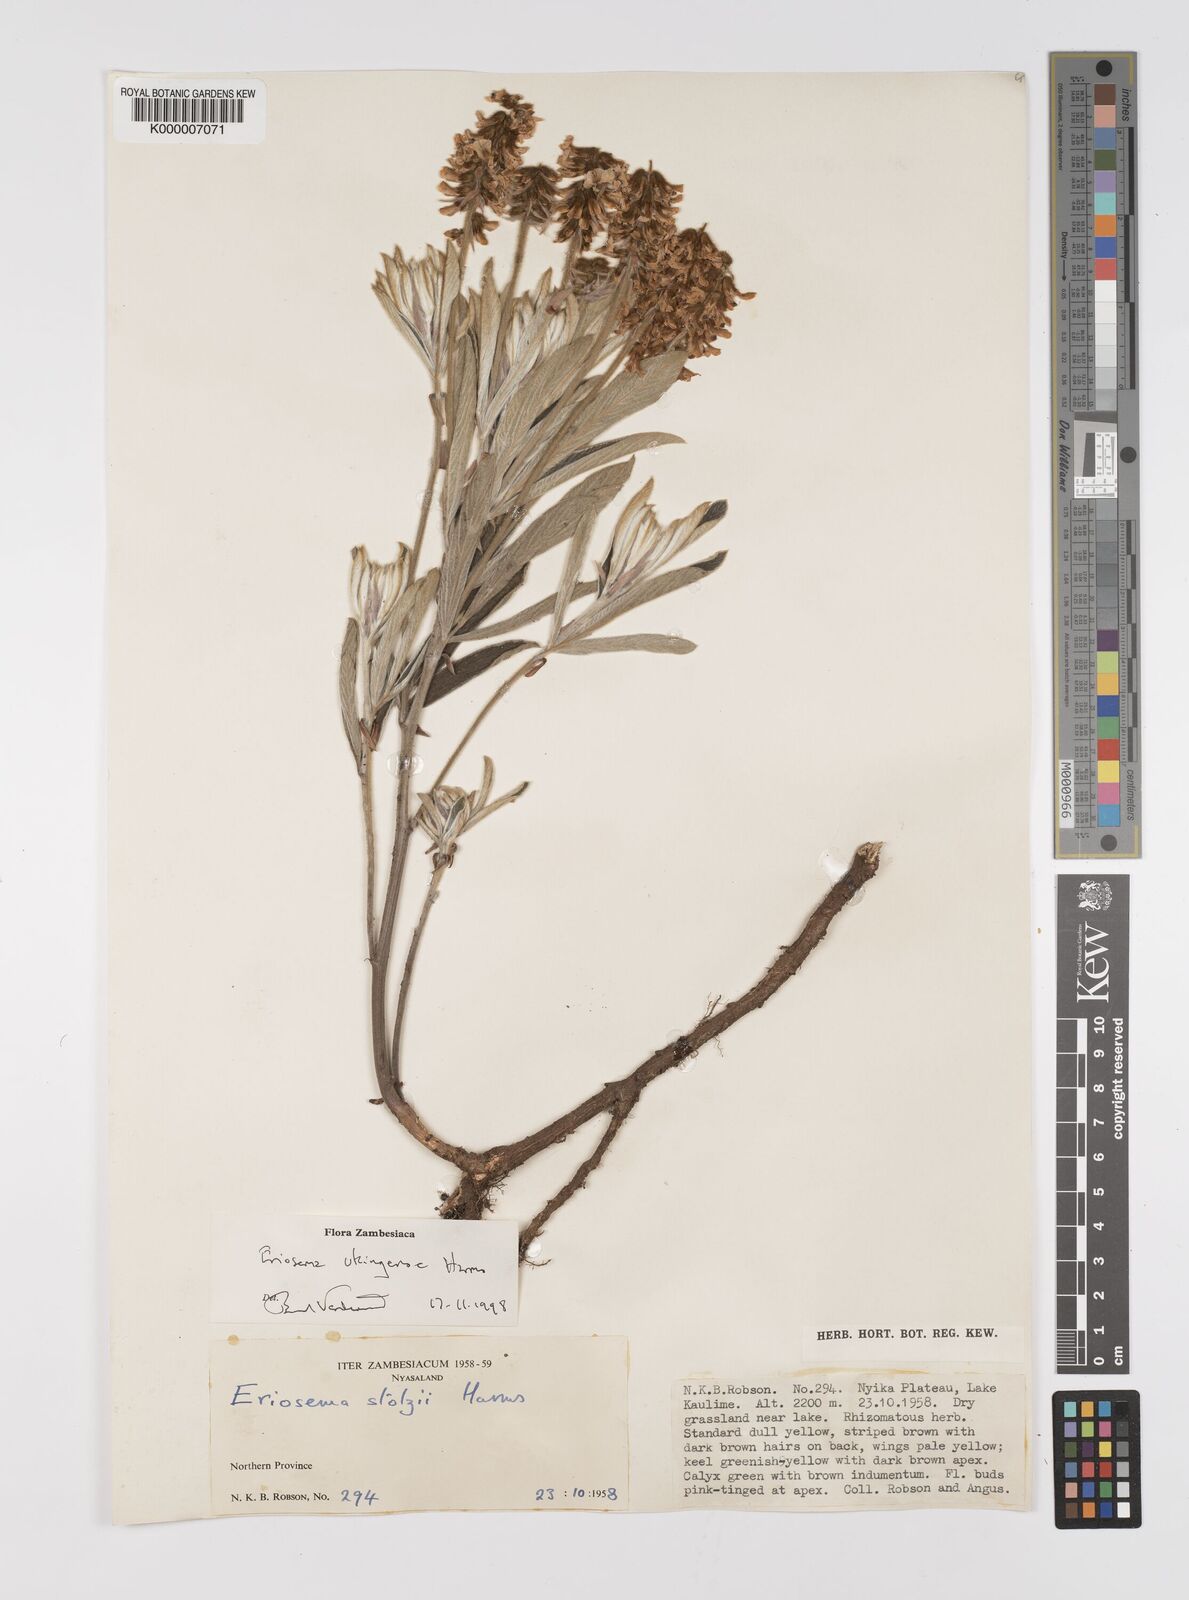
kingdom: Plantae
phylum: Tracheophyta
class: Magnoliopsida
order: Fabales
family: Fabaceae
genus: Eriosema
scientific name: Eriosema ukingense
